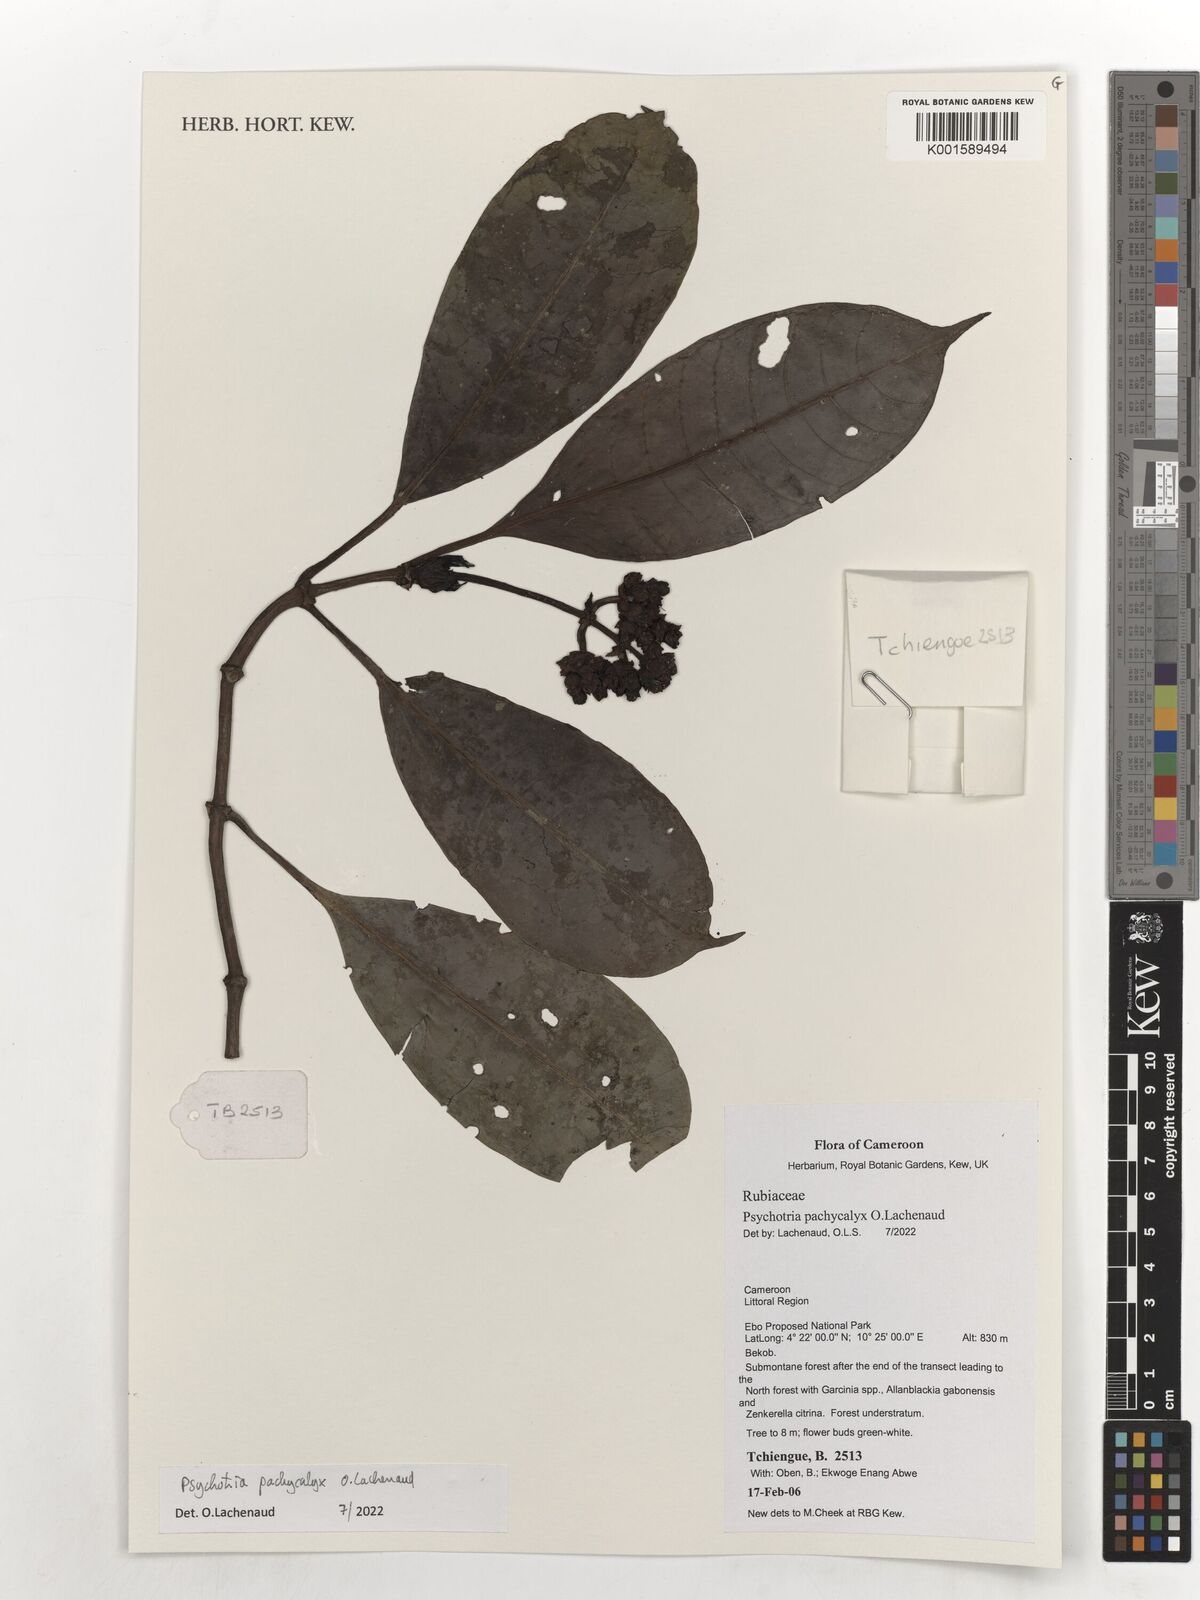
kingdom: Plantae
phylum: Tracheophyta
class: Magnoliopsida
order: Gentianales
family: Rubiaceae
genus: Psychotria
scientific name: Psychotria pachycalyx
